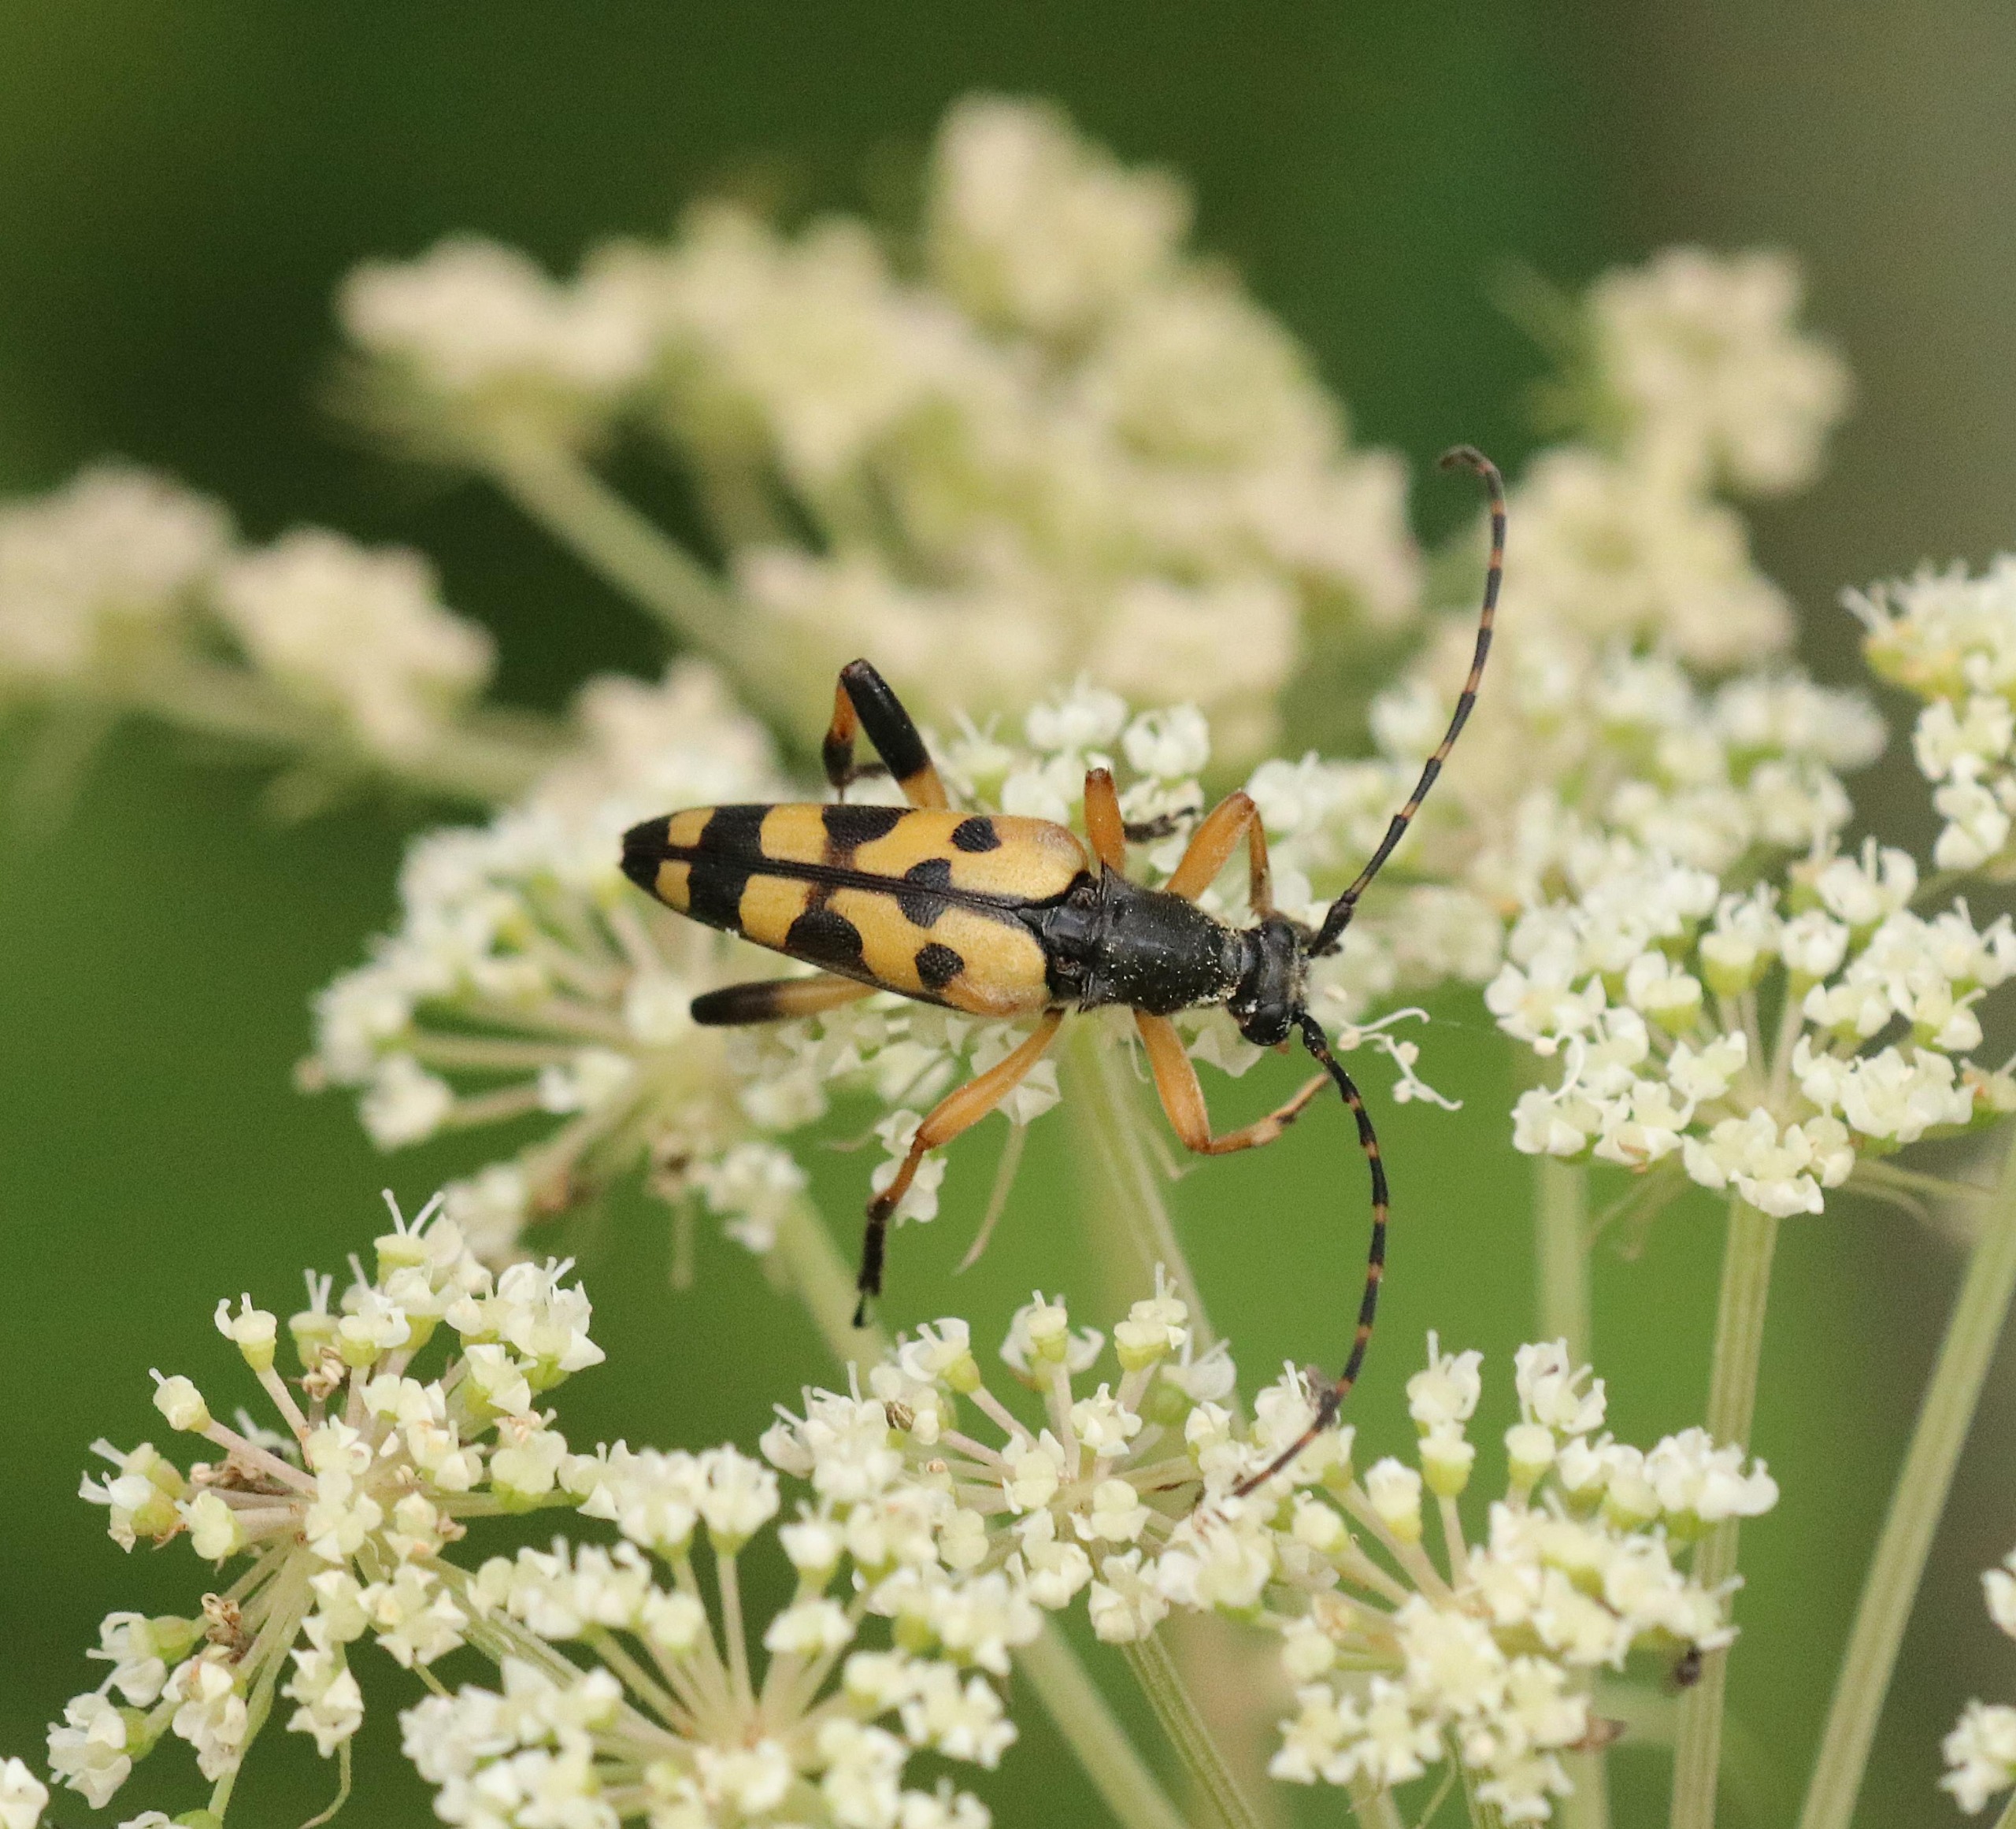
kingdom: Animalia
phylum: Arthropoda
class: Insecta
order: Coleoptera
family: Cerambycidae
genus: Rutpela
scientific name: Rutpela maculata
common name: Sydlig blomsterbuk
